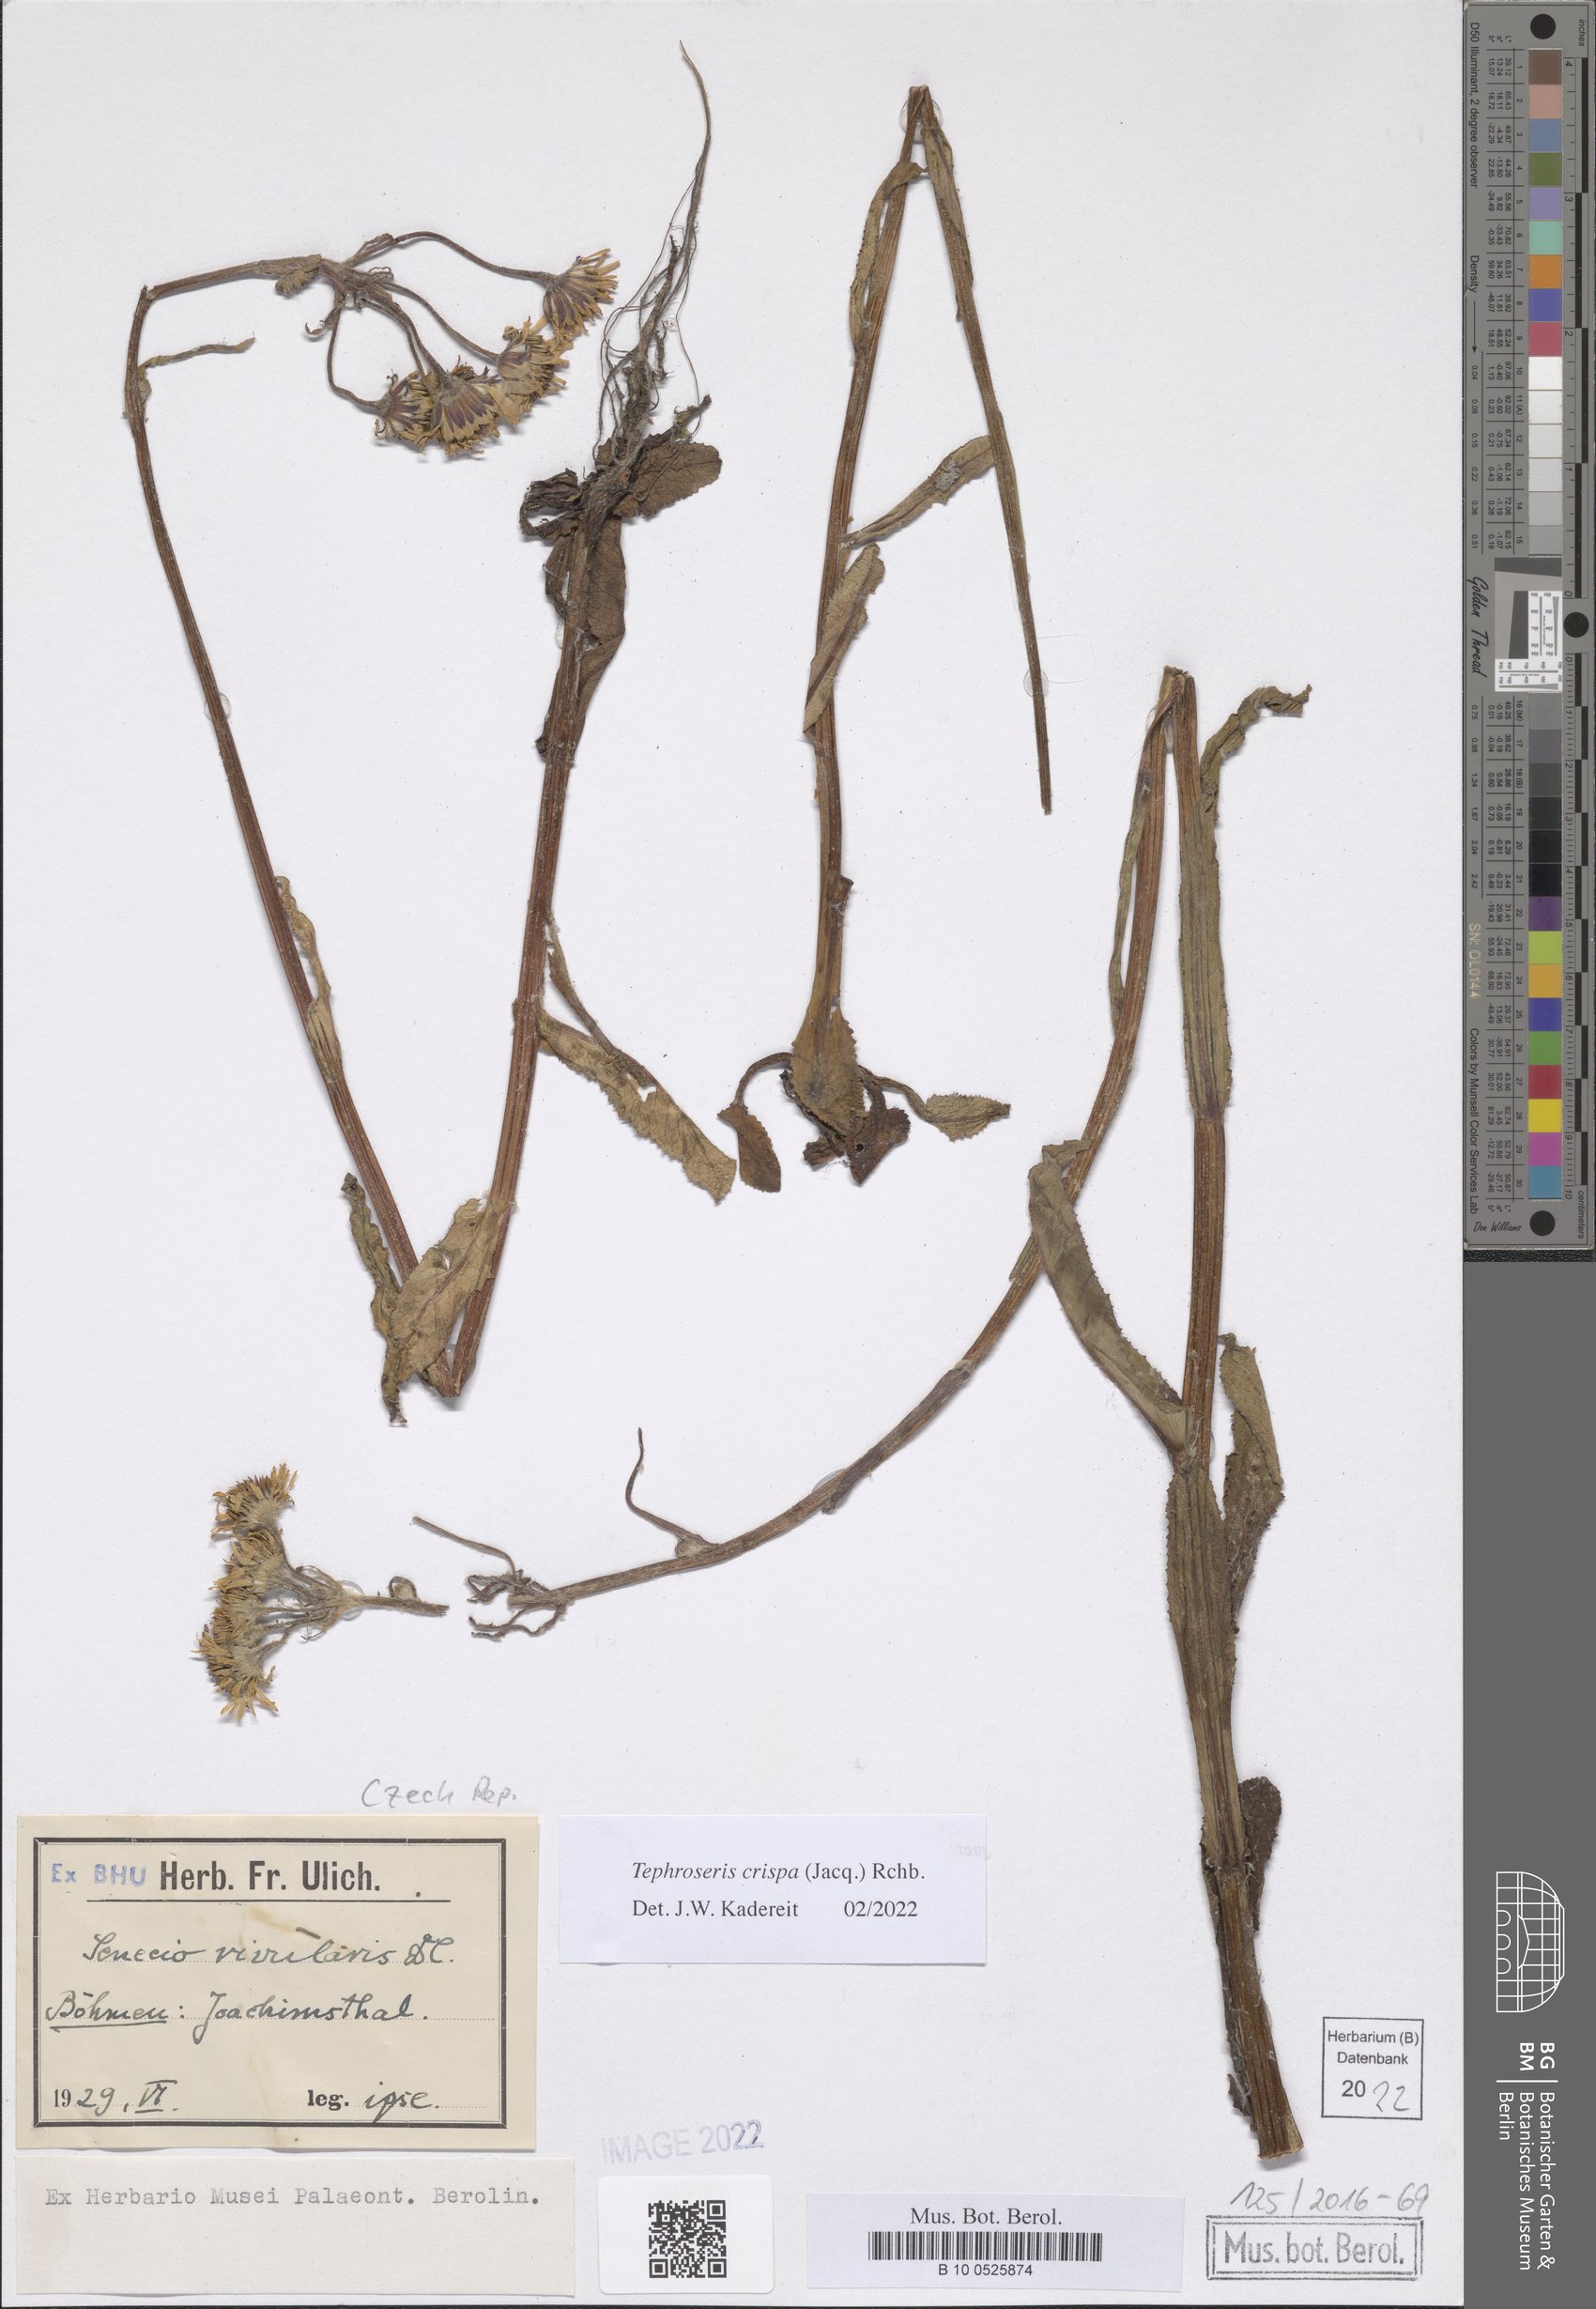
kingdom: Plantae
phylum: Tracheophyta
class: Magnoliopsida
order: Asterales
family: Asteraceae
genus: Tephroseris
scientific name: Tephroseris crispa
